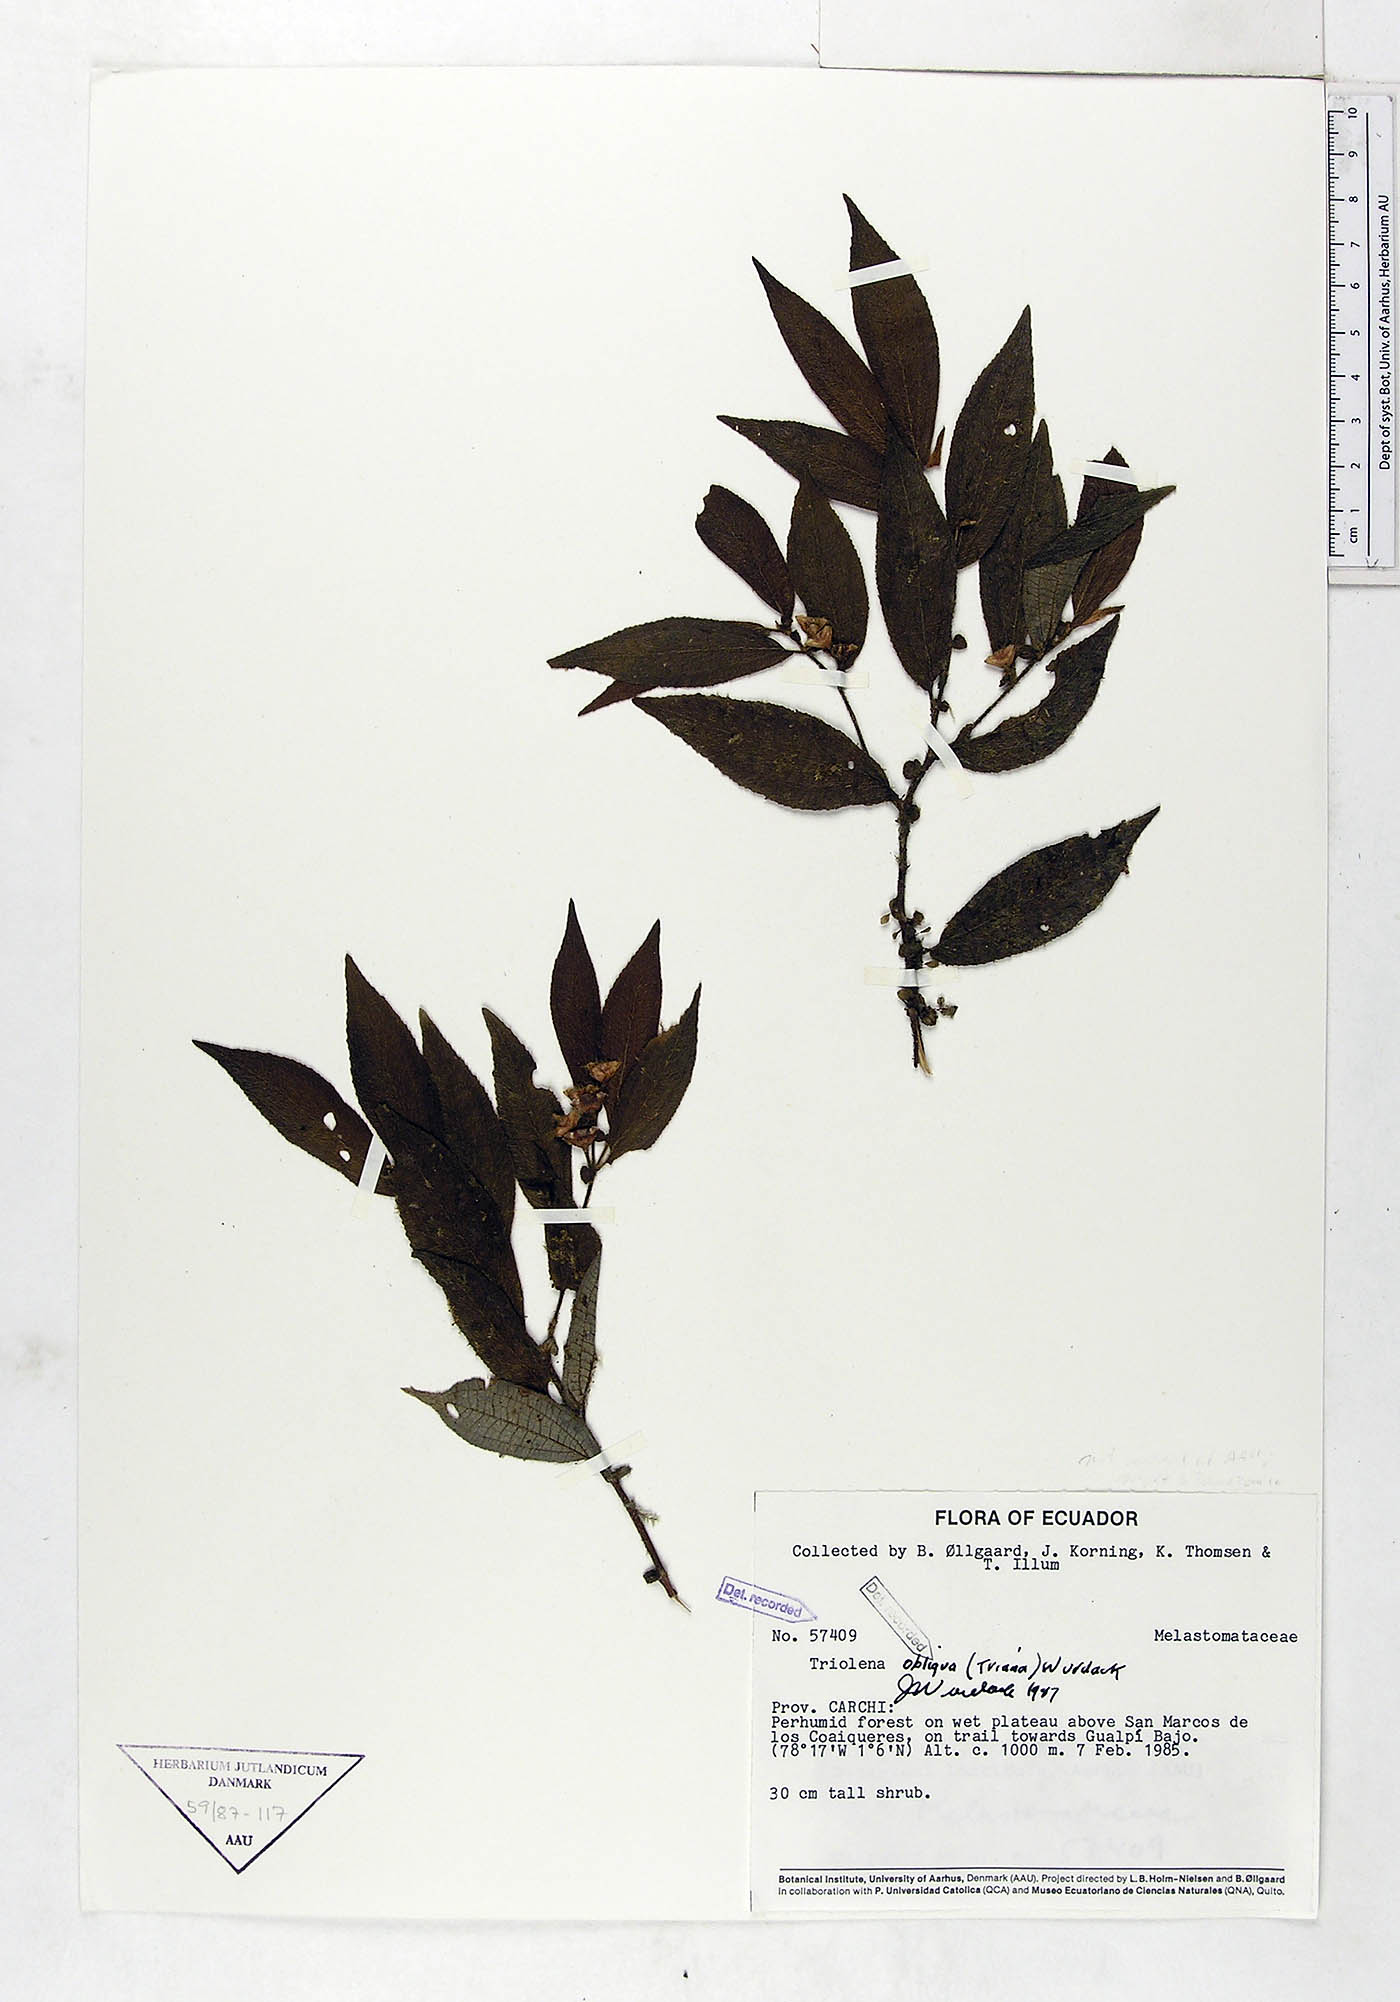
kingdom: Plantae
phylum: Tracheophyta
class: Magnoliopsida
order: Myrtales
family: Melastomataceae
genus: Triolena
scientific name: Triolena obliqua
